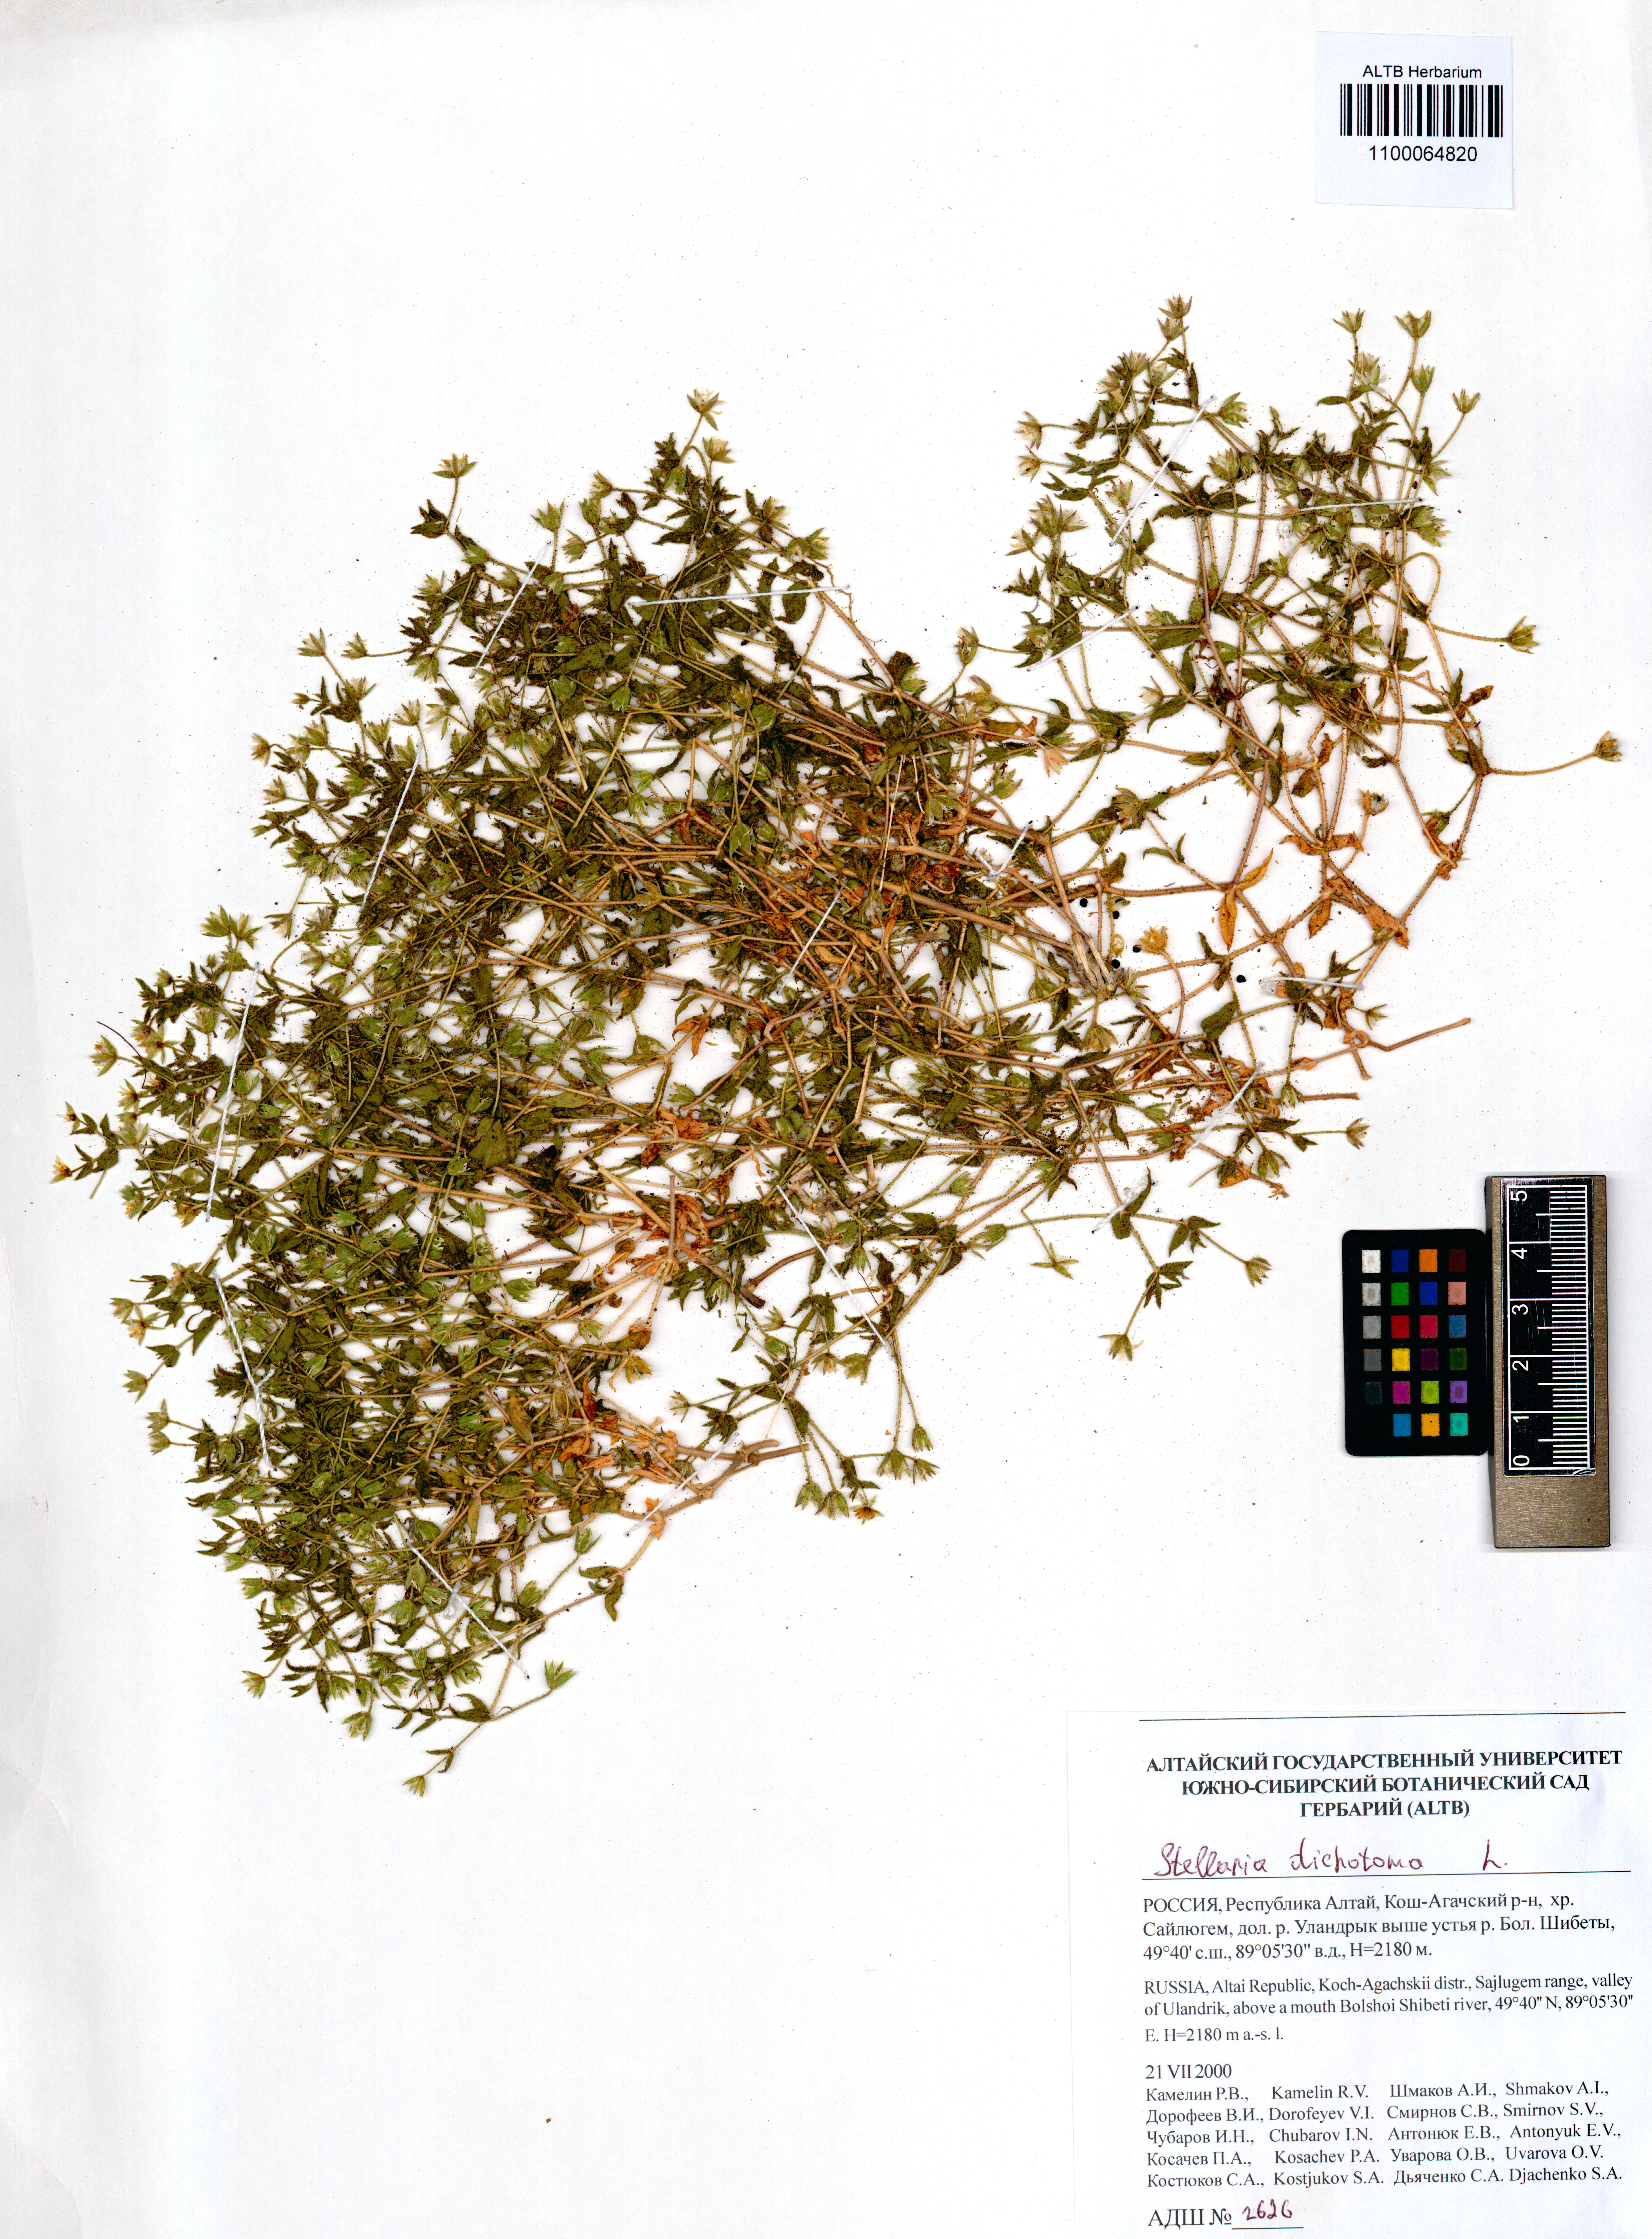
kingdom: Plantae
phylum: Tracheophyta
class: Magnoliopsida
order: Caryophyllales
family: Caryophyllaceae
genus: Mesostemma
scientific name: Mesostemma dichotomum
